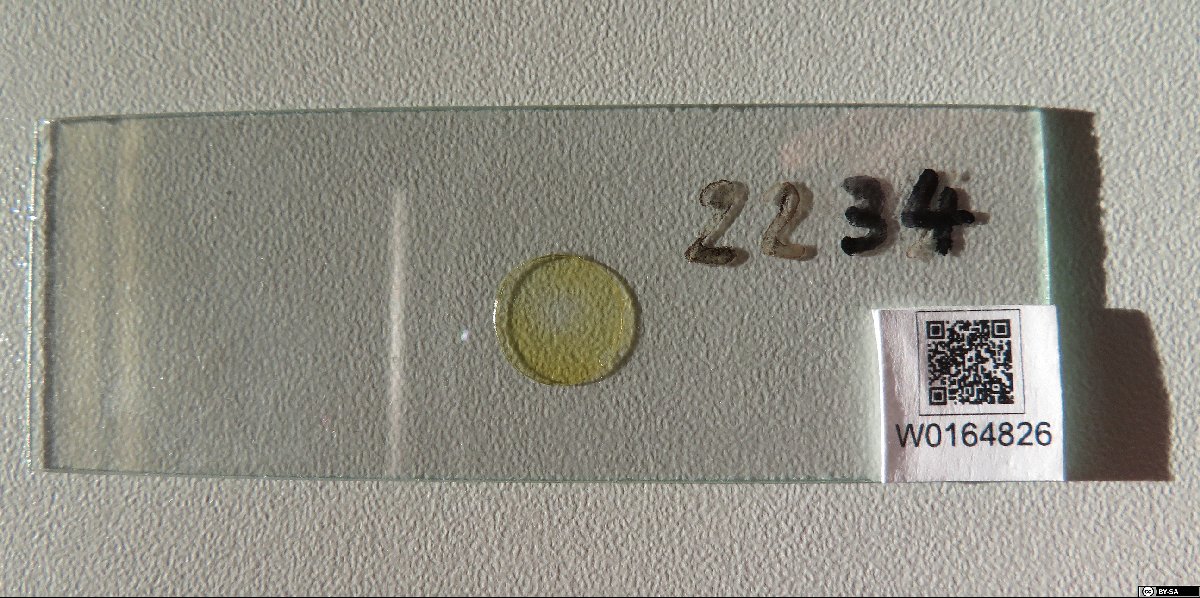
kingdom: Chromista
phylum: Ochrophyta
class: Bacillariophyceae
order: Fragilariales
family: Fragilariaceae
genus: Fragilaria
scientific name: Fragilaria lapponica
